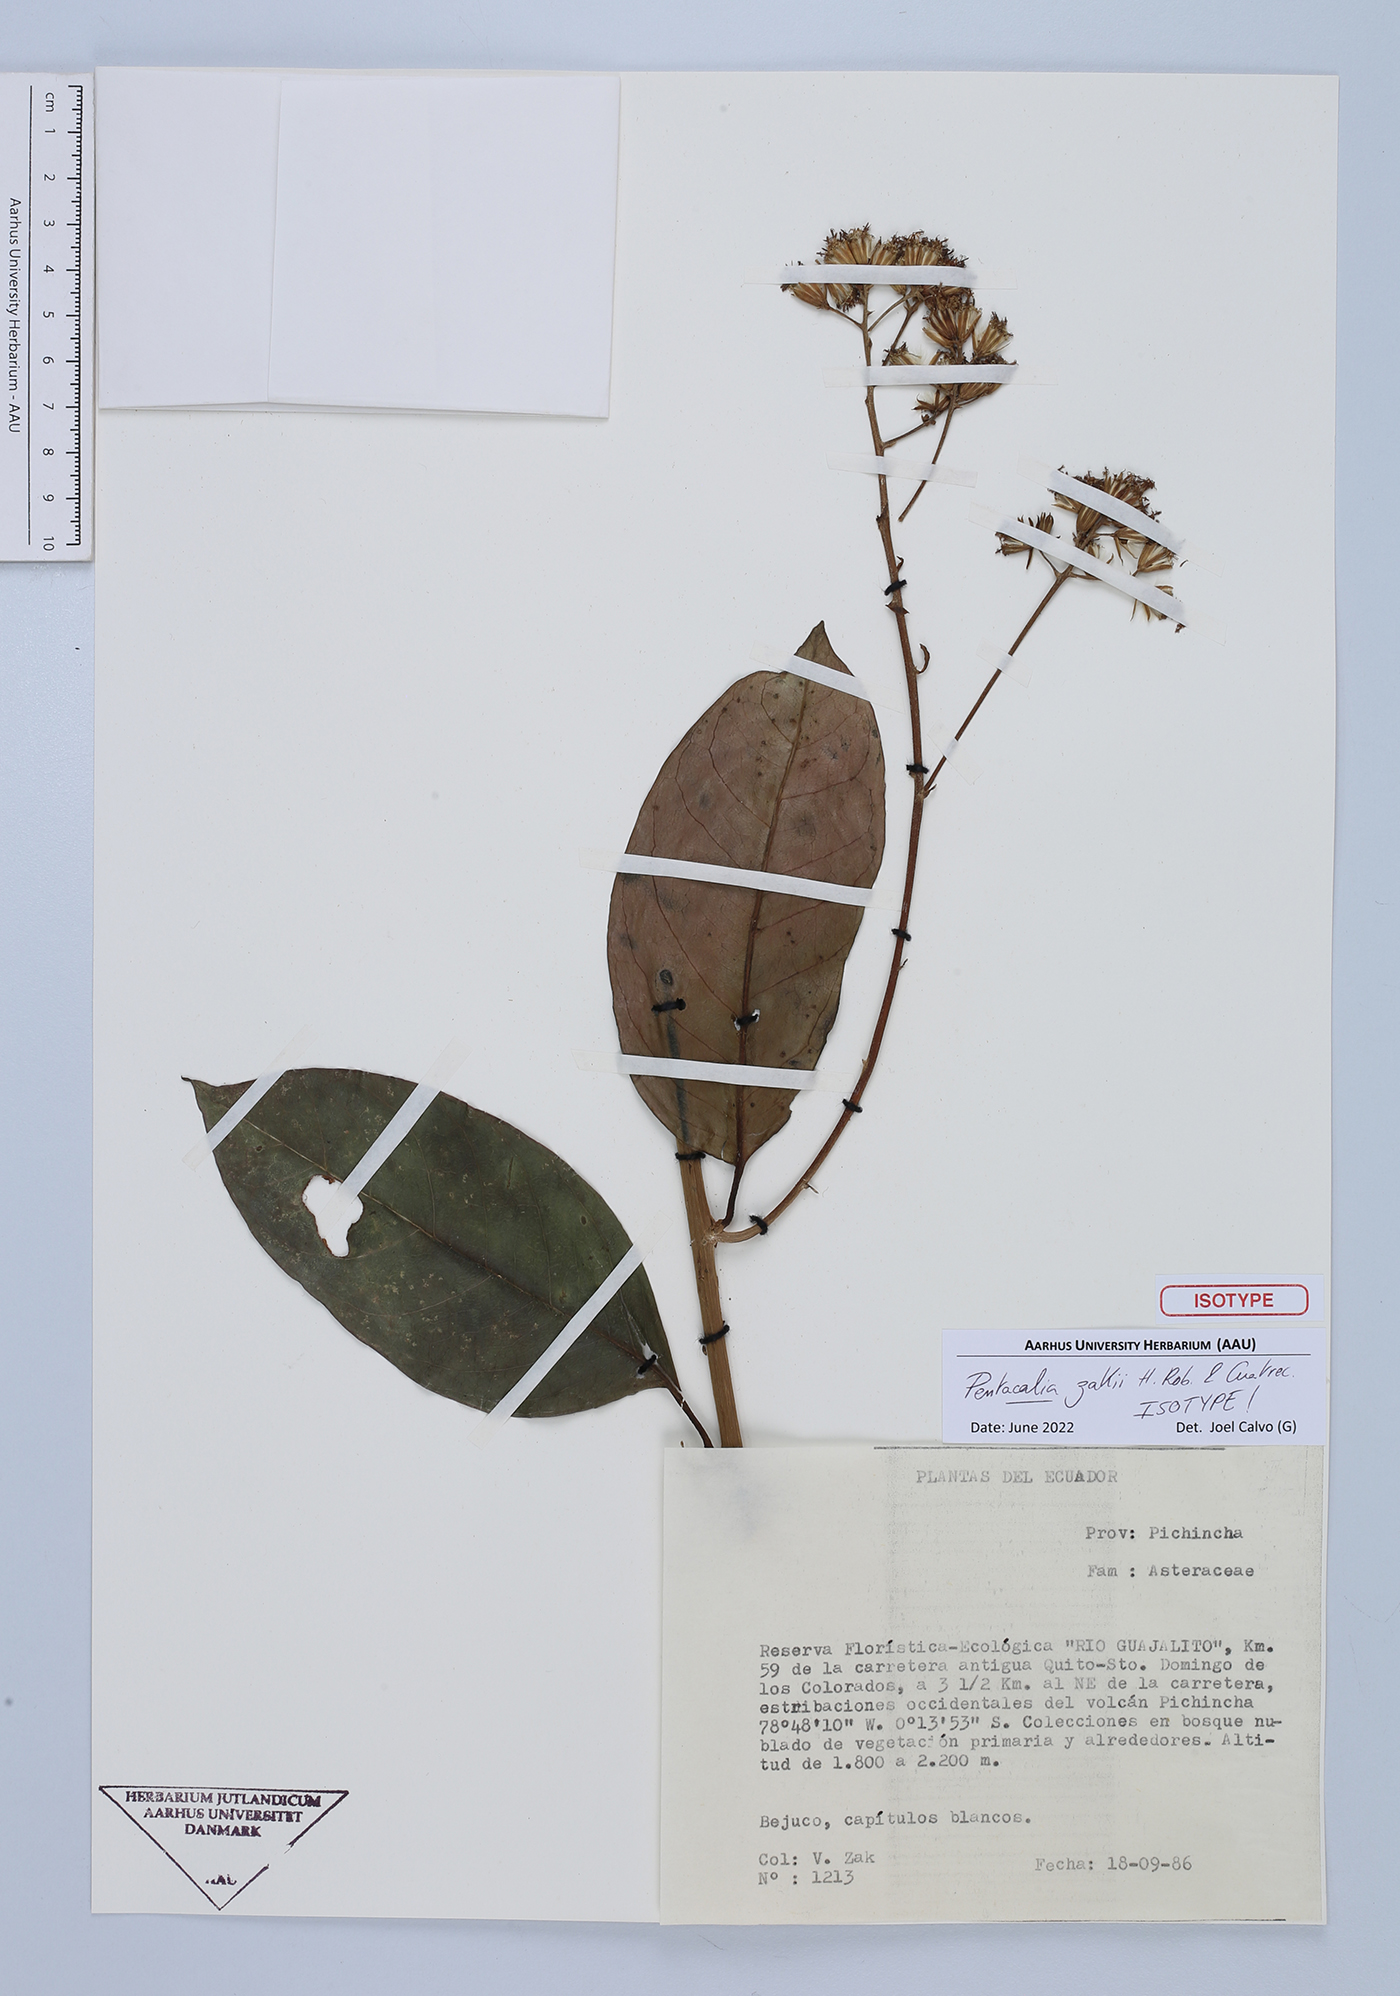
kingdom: Plantae
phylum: Tracheophyta
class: Magnoliopsida
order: Asterales
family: Asteraceae
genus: Pentacalia
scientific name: Pentacalia zakii
